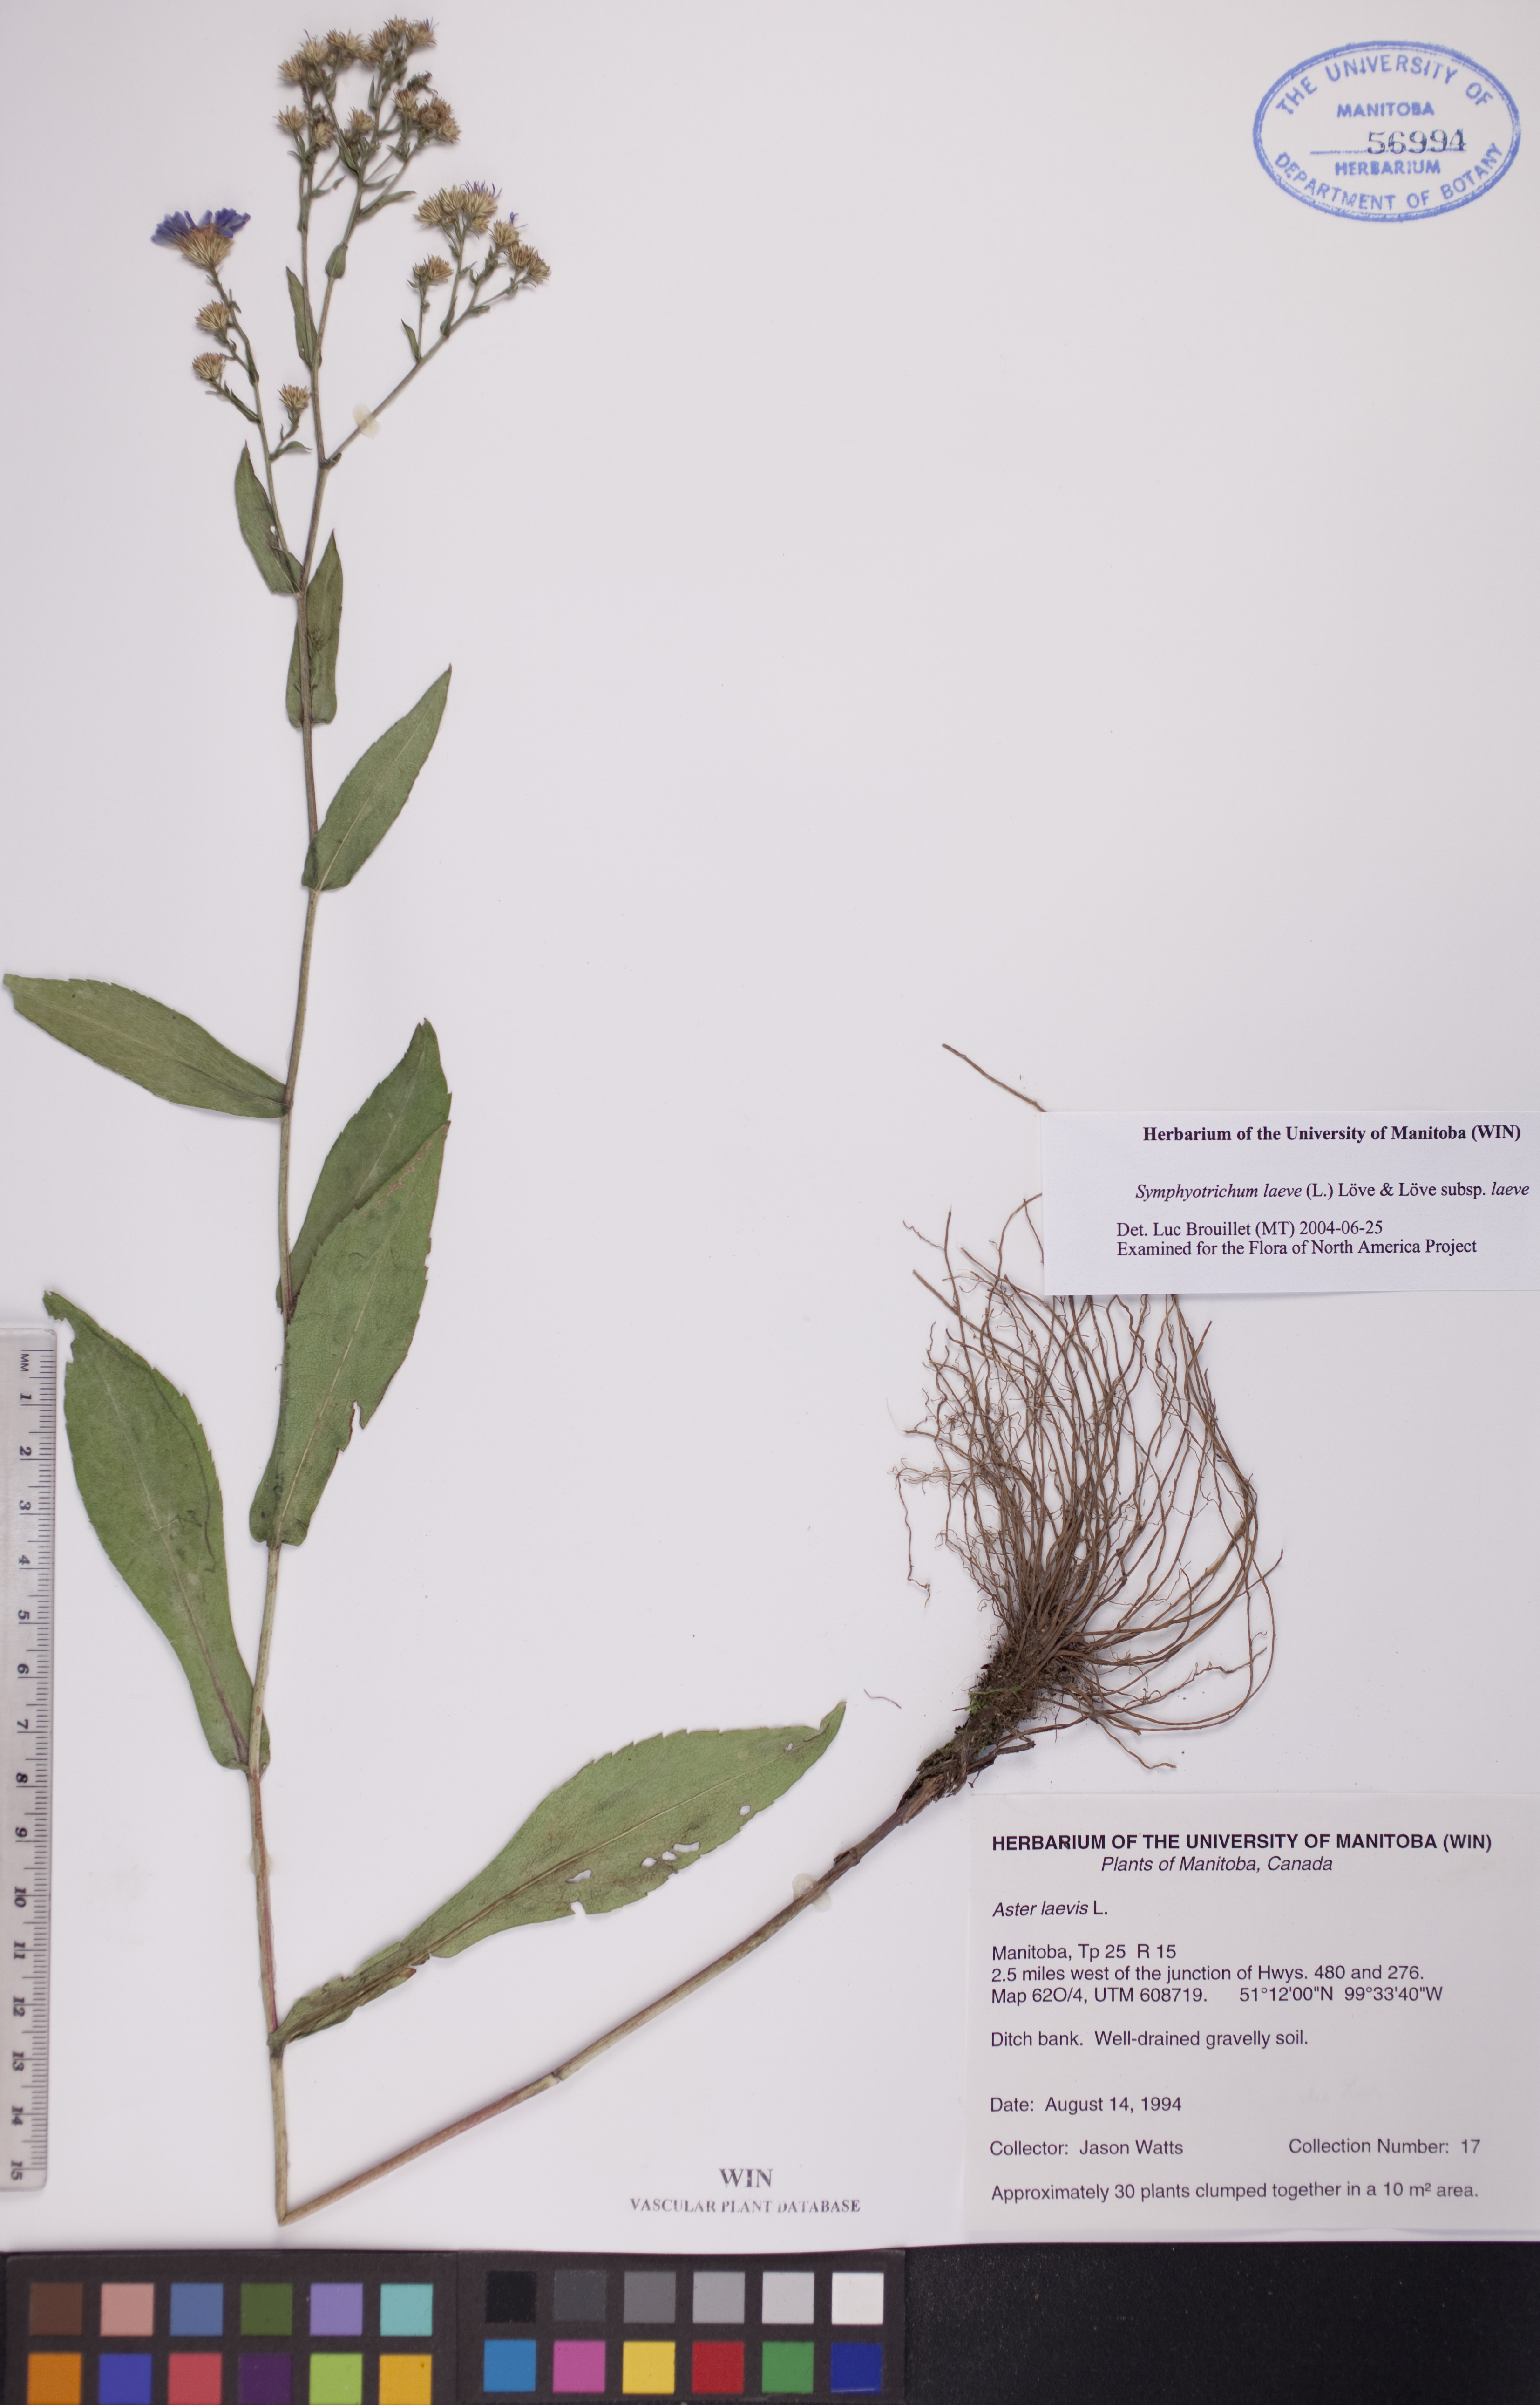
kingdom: Plantae
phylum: Tracheophyta
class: Magnoliopsida
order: Asterales
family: Asteraceae
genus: Symphyotrichum
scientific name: Symphyotrichum laeve
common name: Glaucous aster
